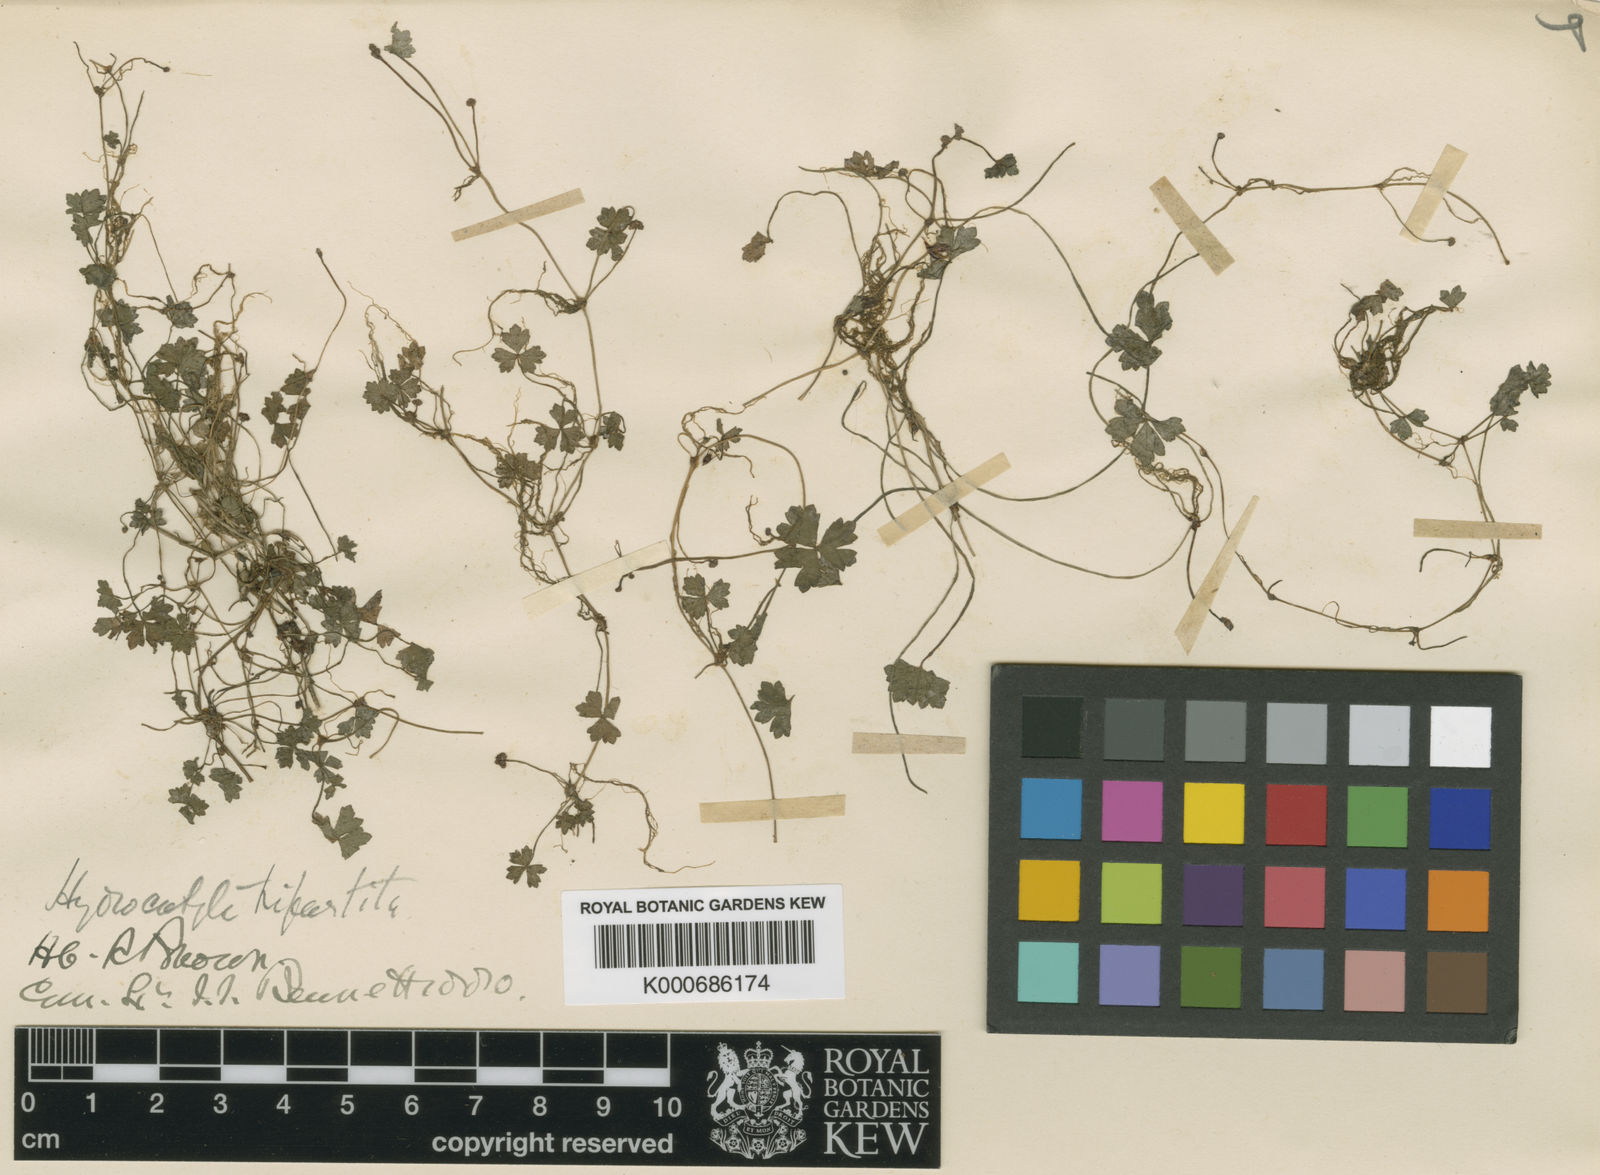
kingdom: Plantae
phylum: Tracheophyta
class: Magnoliopsida
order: Apiales
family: Araliaceae
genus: Hydrocotyle
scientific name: Hydrocotyle tripartita
